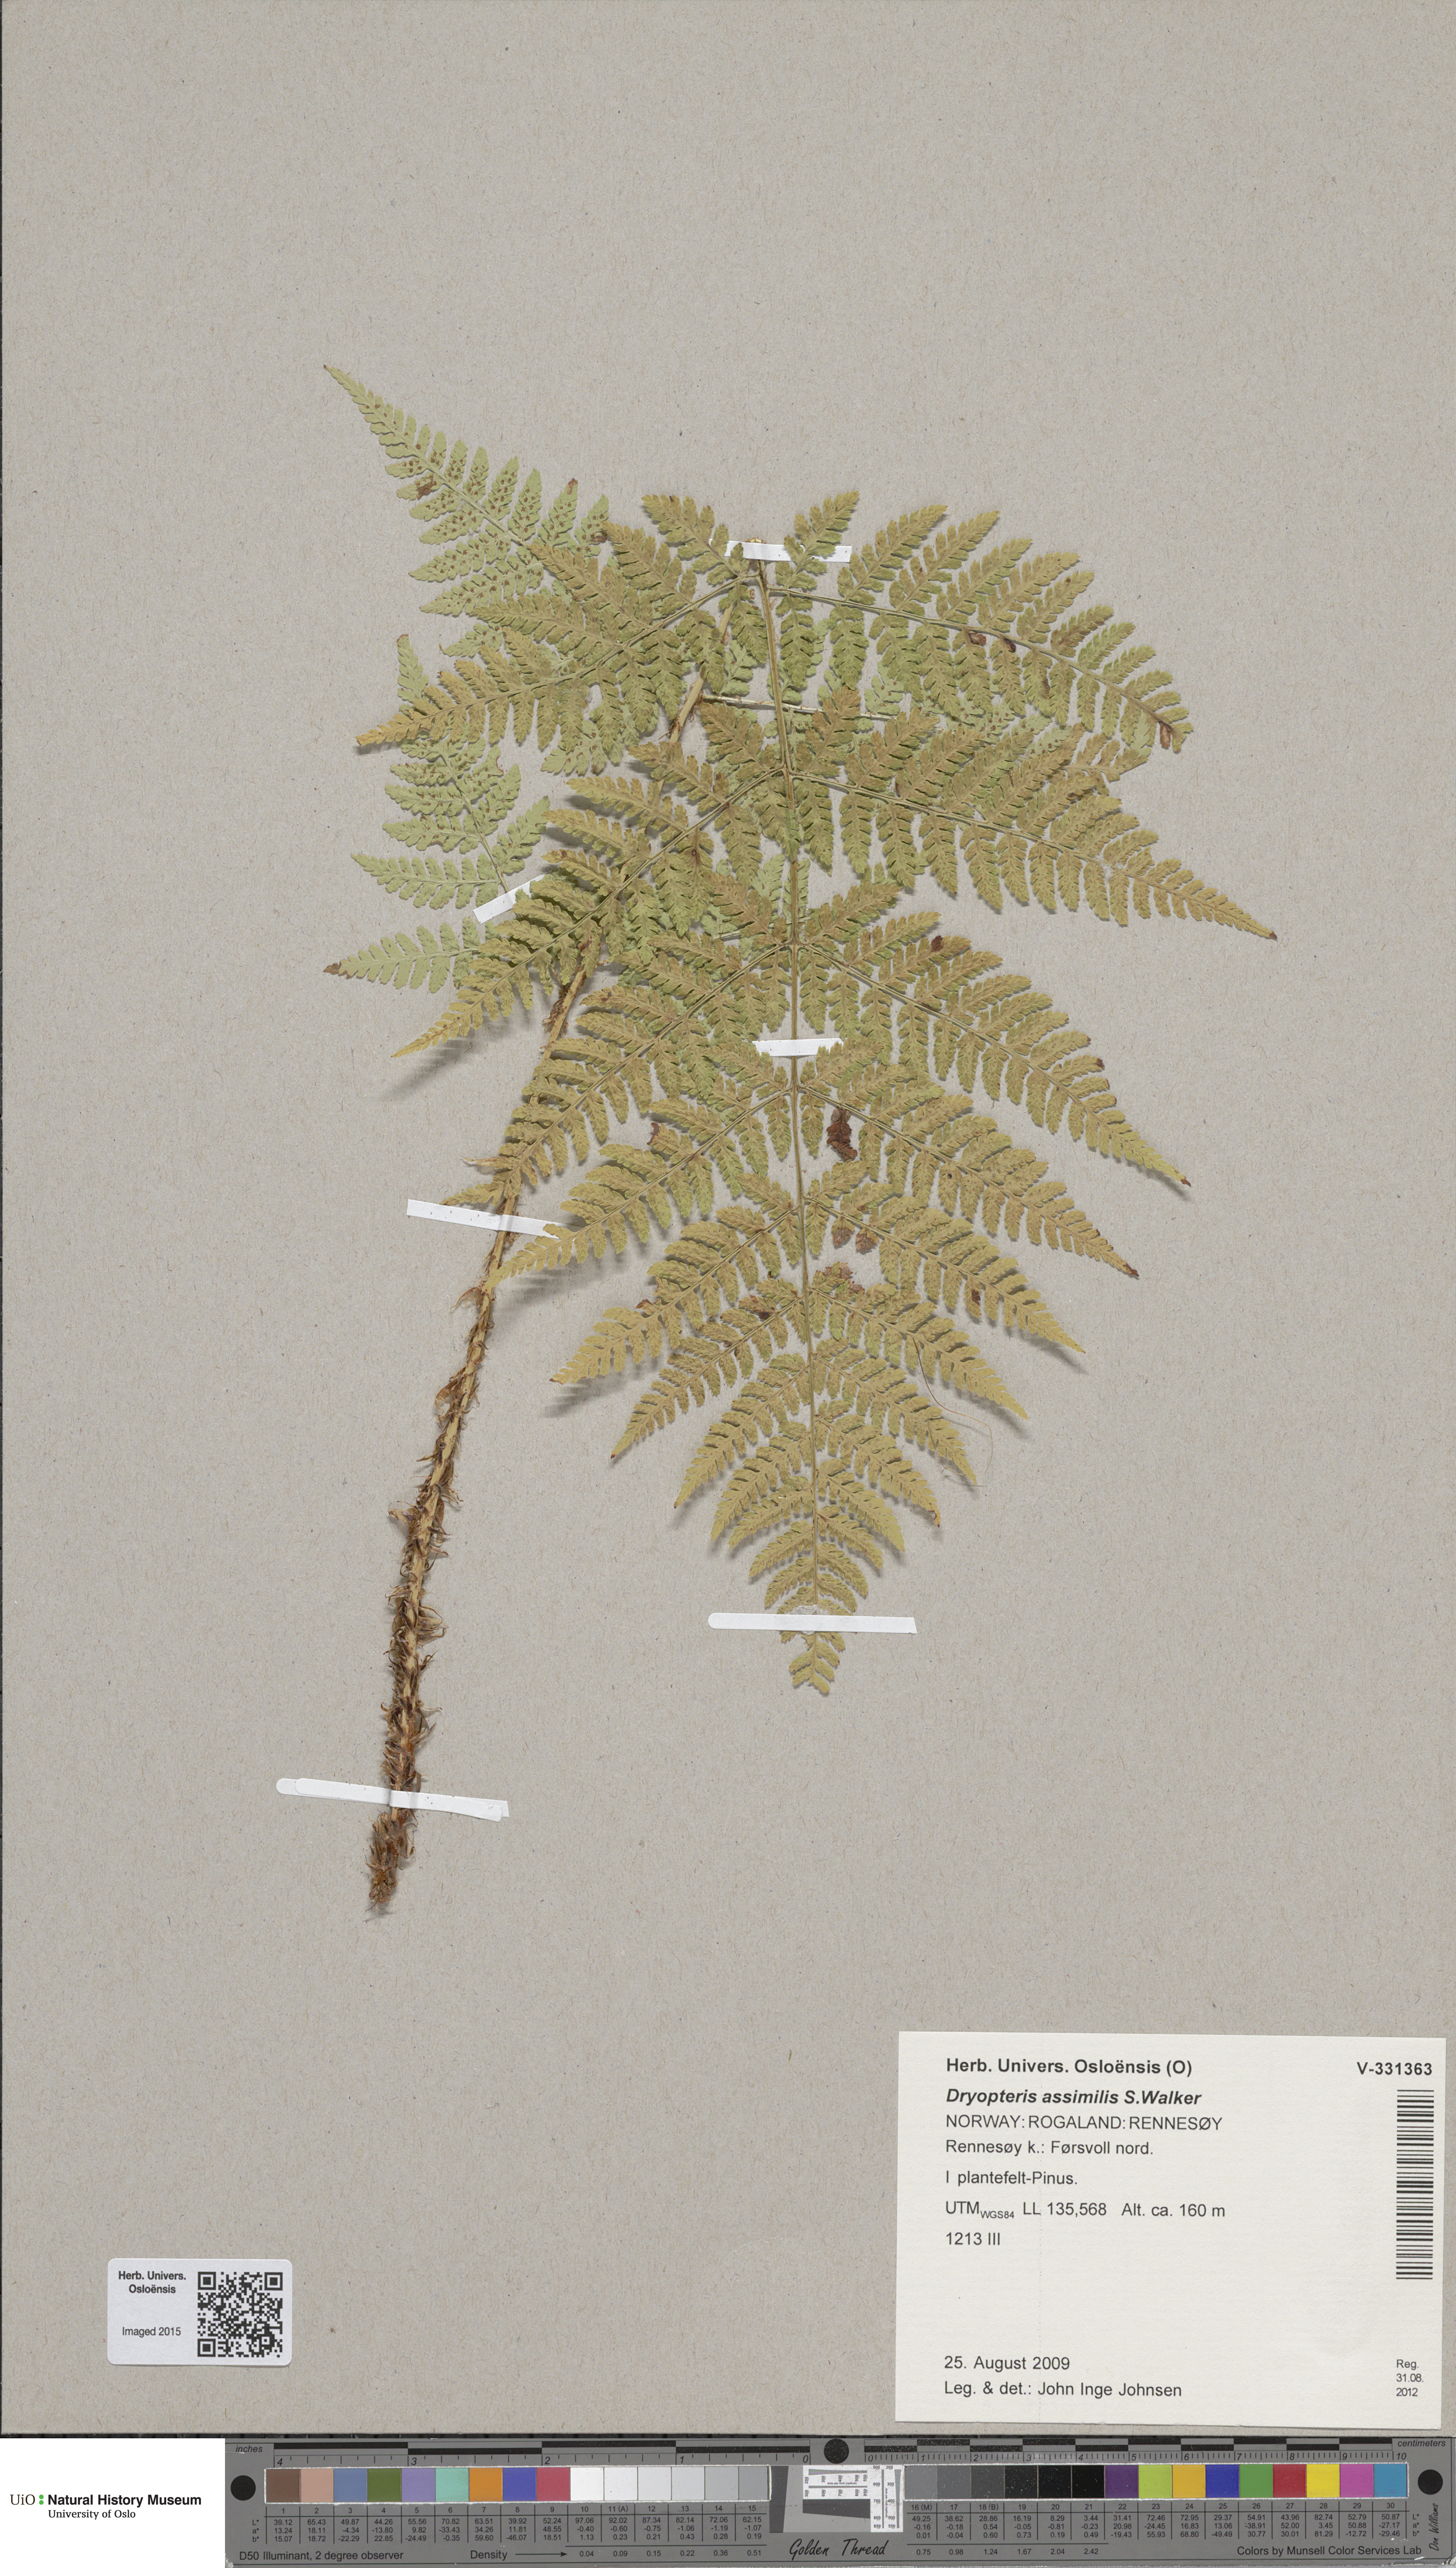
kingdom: Plantae
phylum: Tracheophyta
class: Polypodiopsida
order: Polypodiales
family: Dryopteridaceae
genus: Dryopteris
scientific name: Dryopteris expansa
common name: Northern buckler fern
